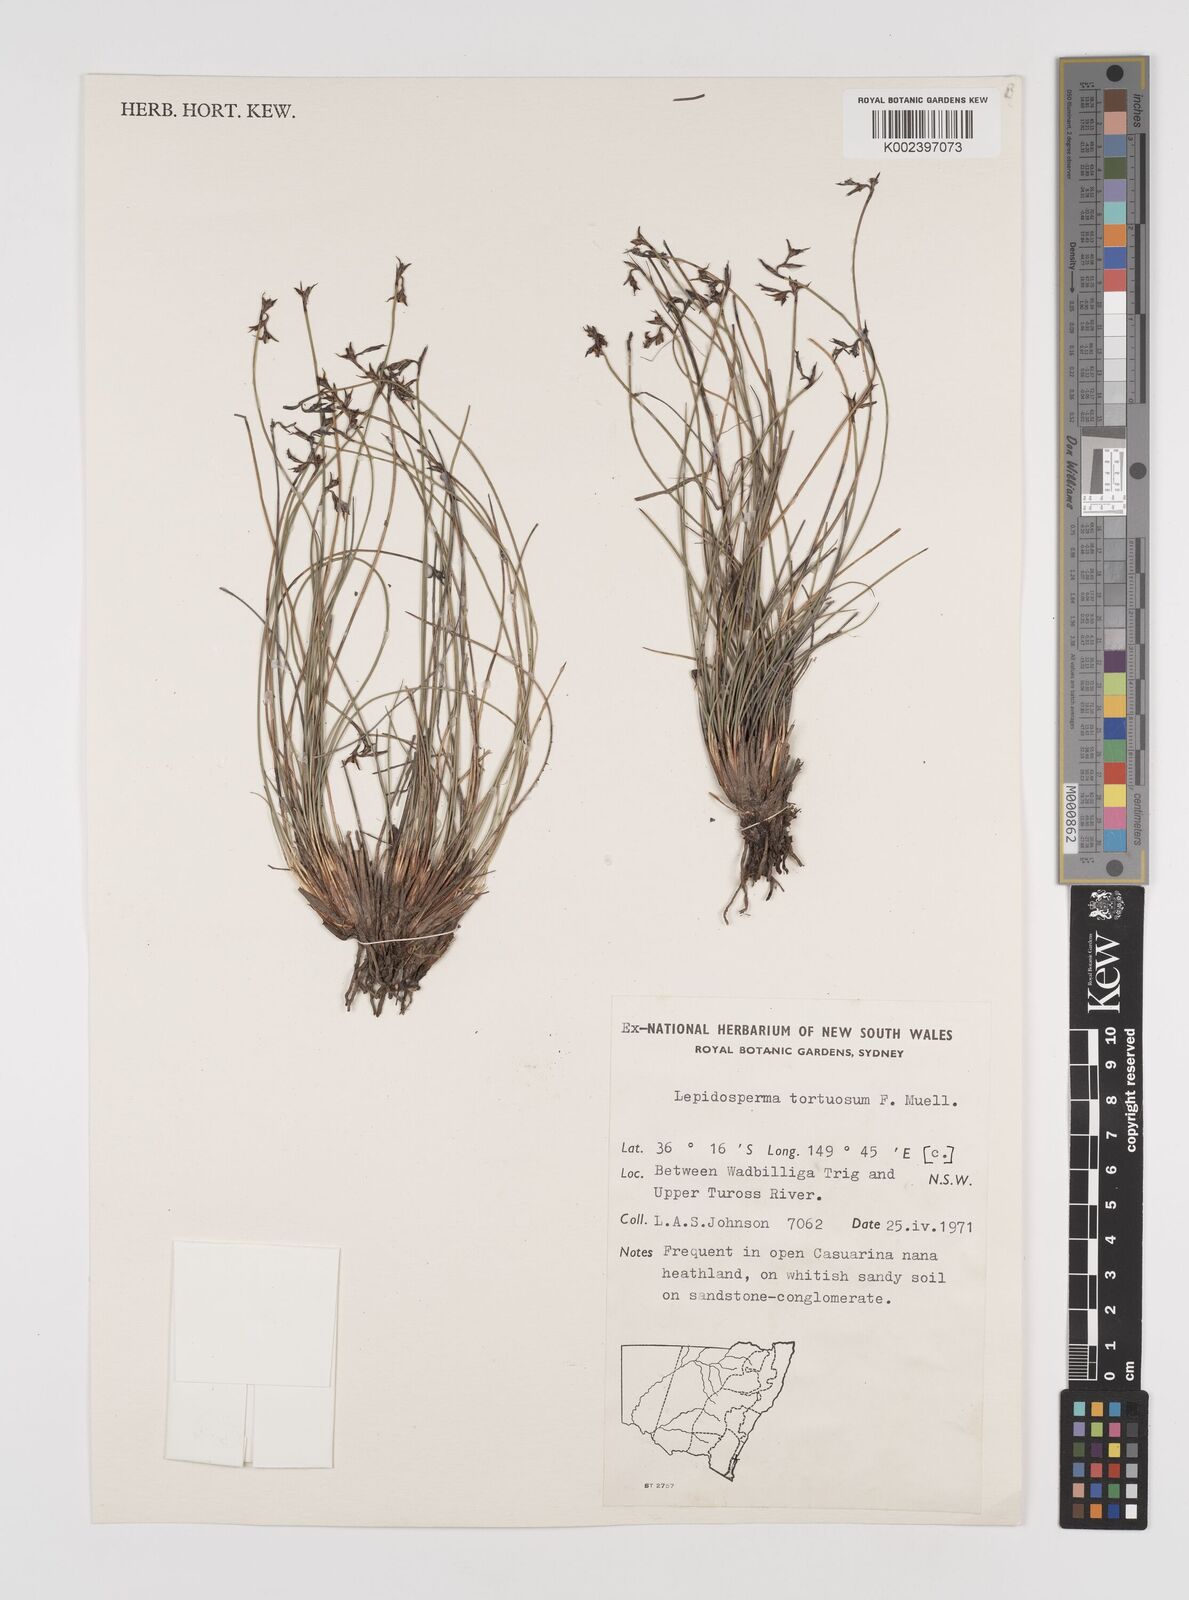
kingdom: Plantae
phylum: Tracheophyta
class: Liliopsida
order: Poales
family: Cyperaceae
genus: Lepidosperma
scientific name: Lepidosperma tortuosum
